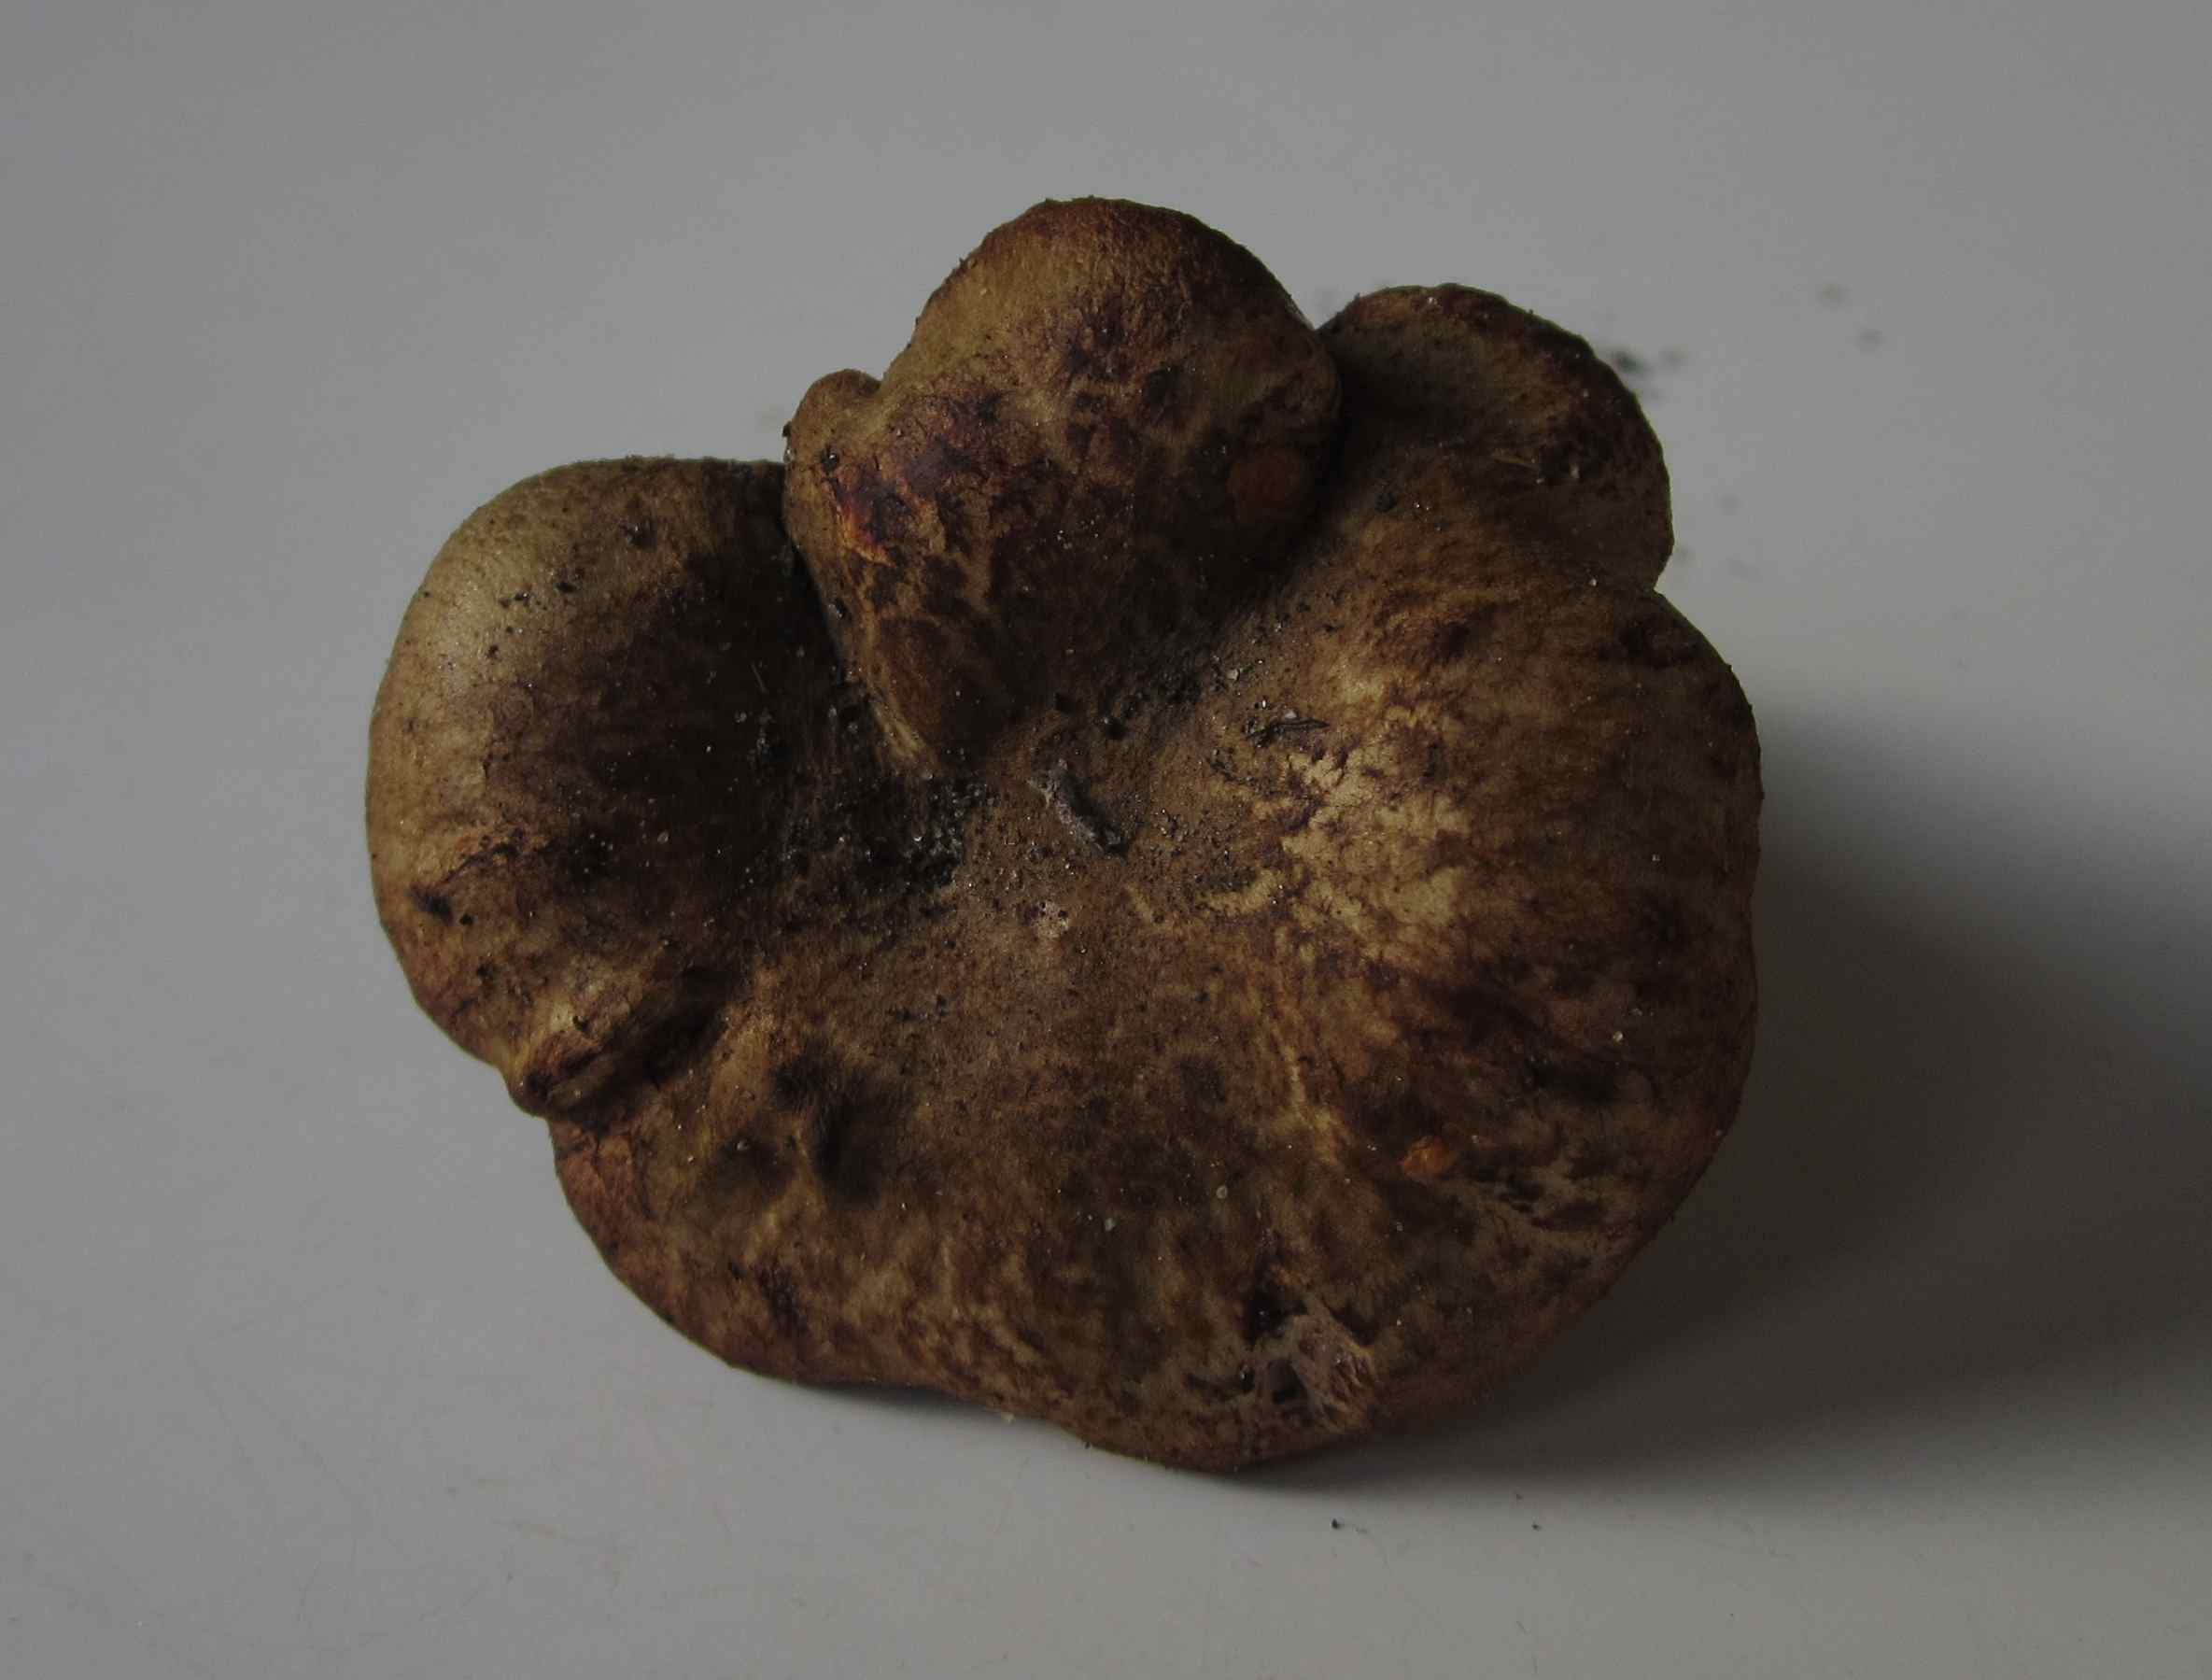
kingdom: Fungi
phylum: Basidiomycota
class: Agaricomycetes
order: Boletales
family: Paxillaceae
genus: Paxillus
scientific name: Paxillus rubicundulus
